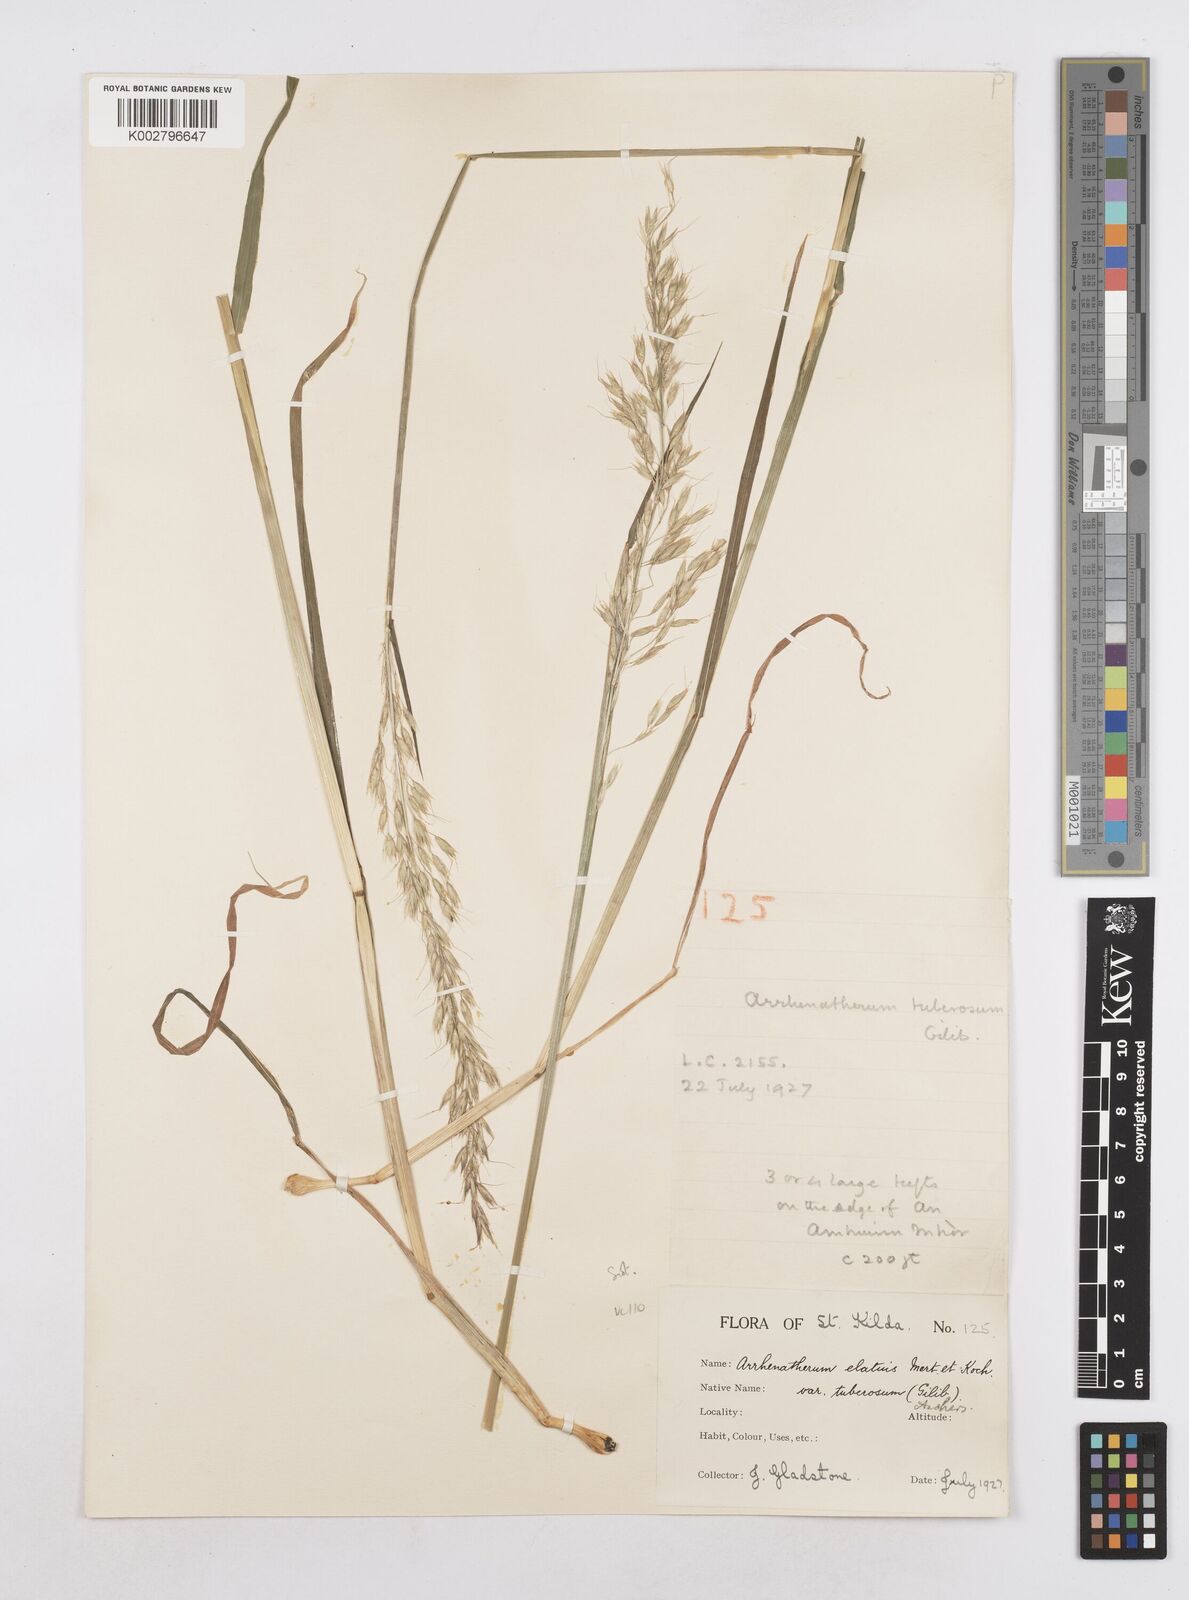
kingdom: Plantae
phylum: Tracheophyta
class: Liliopsida
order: Poales
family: Poaceae
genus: Arrhenatherum
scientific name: Arrhenatherum elatius
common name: Tall oatgrass
